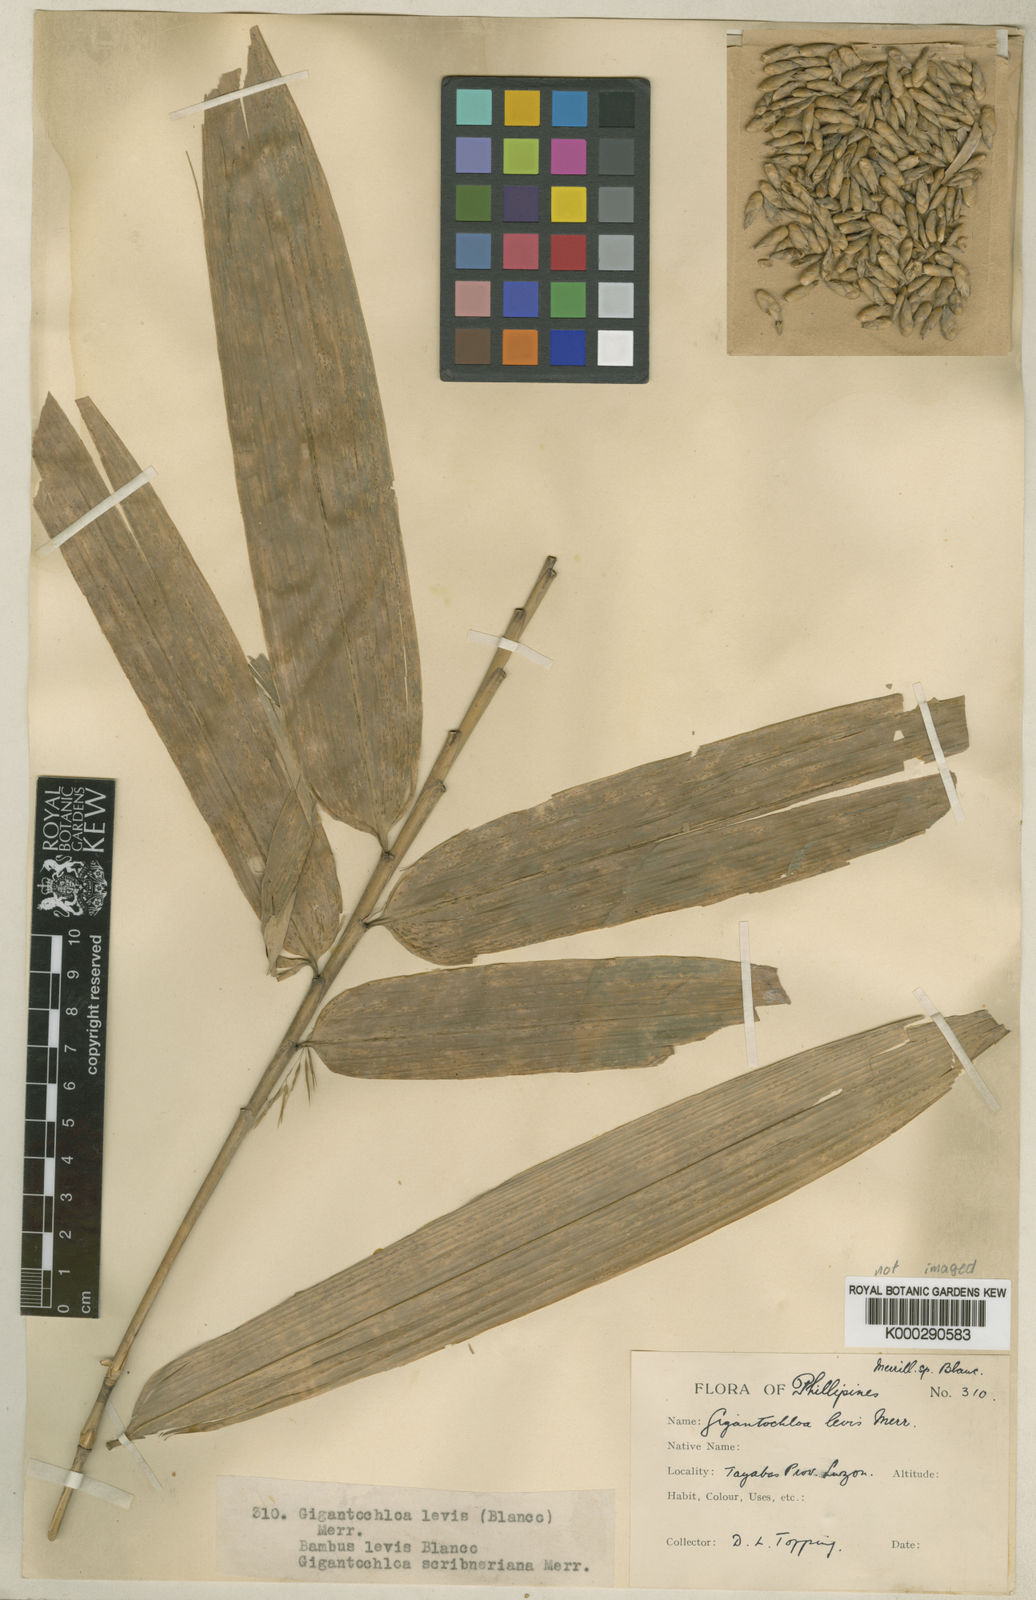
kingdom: Plantae
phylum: Tracheophyta
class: Liliopsida
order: Poales
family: Poaceae
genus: Gigantochloa
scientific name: Gigantochloa levis
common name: Smooth-shoot gigantochloa
